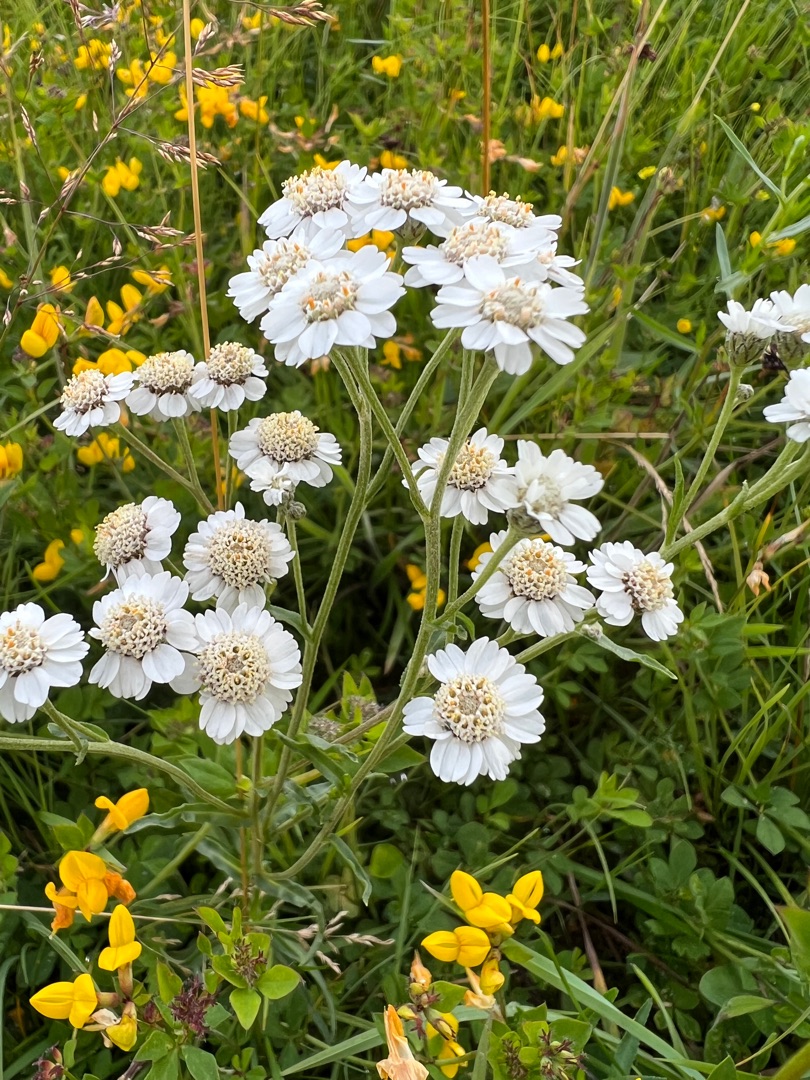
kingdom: Plantae
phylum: Tracheophyta
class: Magnoliopsida
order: Asterales
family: Asteraceae
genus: Achillea
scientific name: Achillea ptarmica
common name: Nyse-røllike
